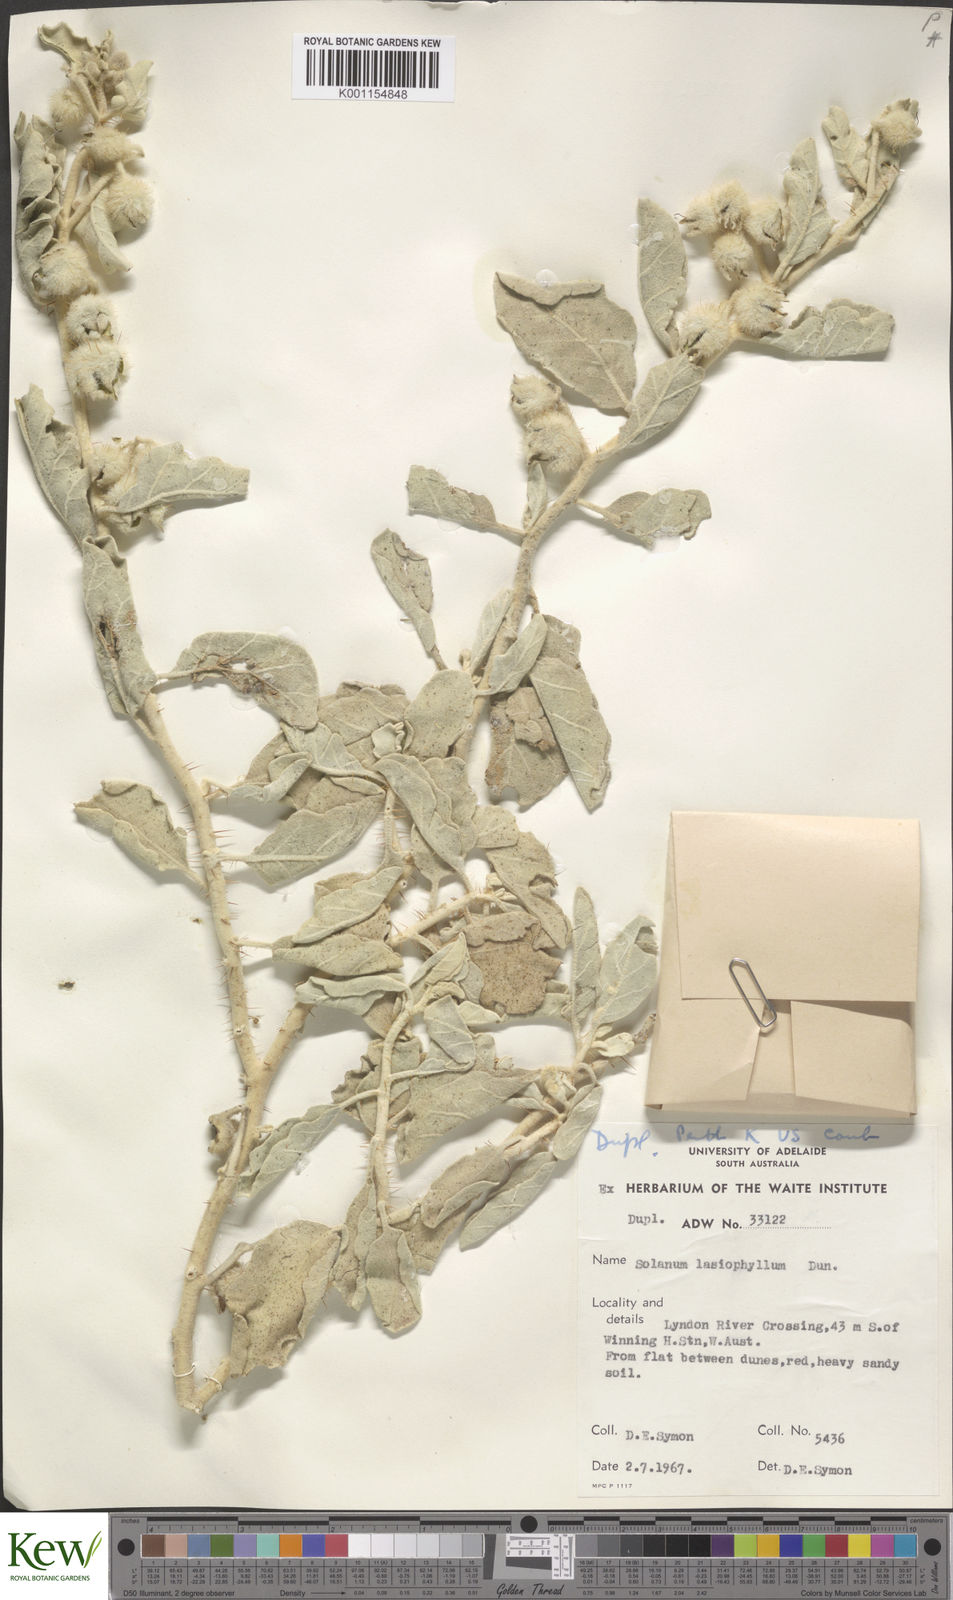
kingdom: Plantae
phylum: Tracheophyta
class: Magnoliopsida
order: Solanales
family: Solanaceae
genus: Solanum
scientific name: Solanum lasiophyllum
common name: Flannelbush
